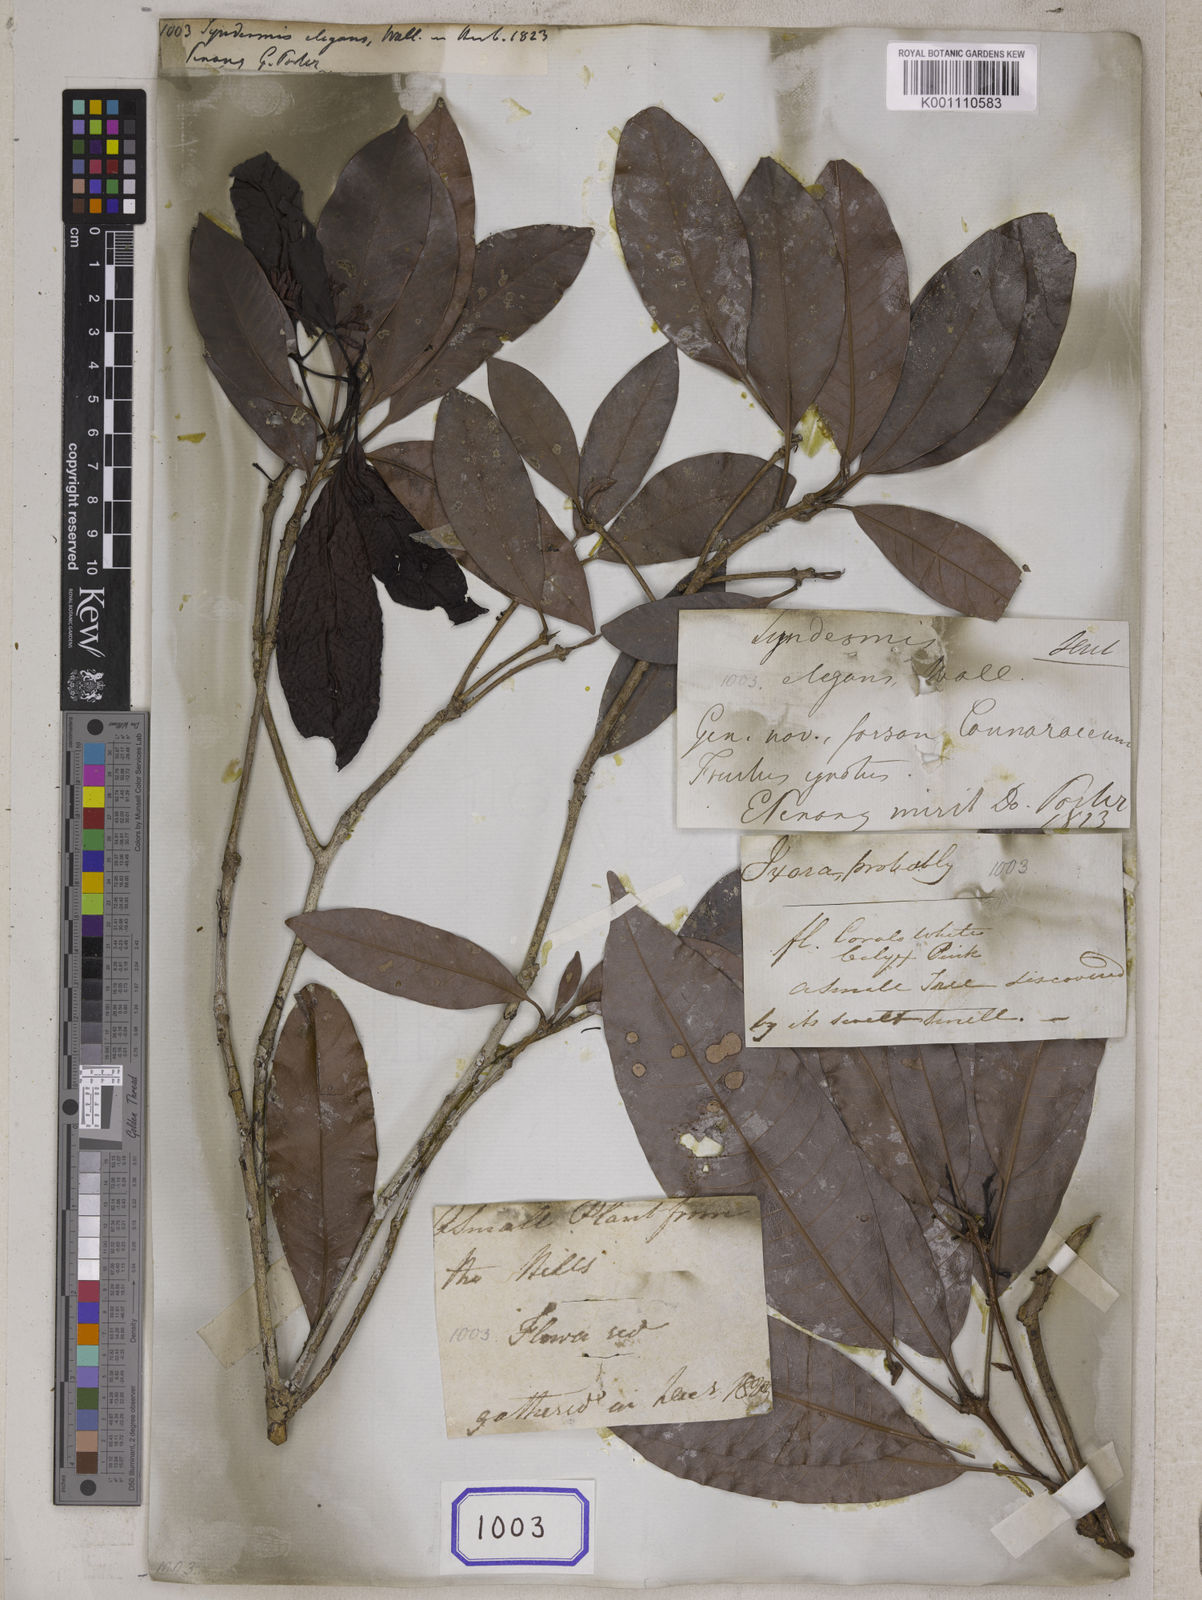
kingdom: Plantae
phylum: Tracheophyta
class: Magnoliopsida
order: Sapindales
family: Anacardiaceae
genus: Gluta
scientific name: Gluta elegans
